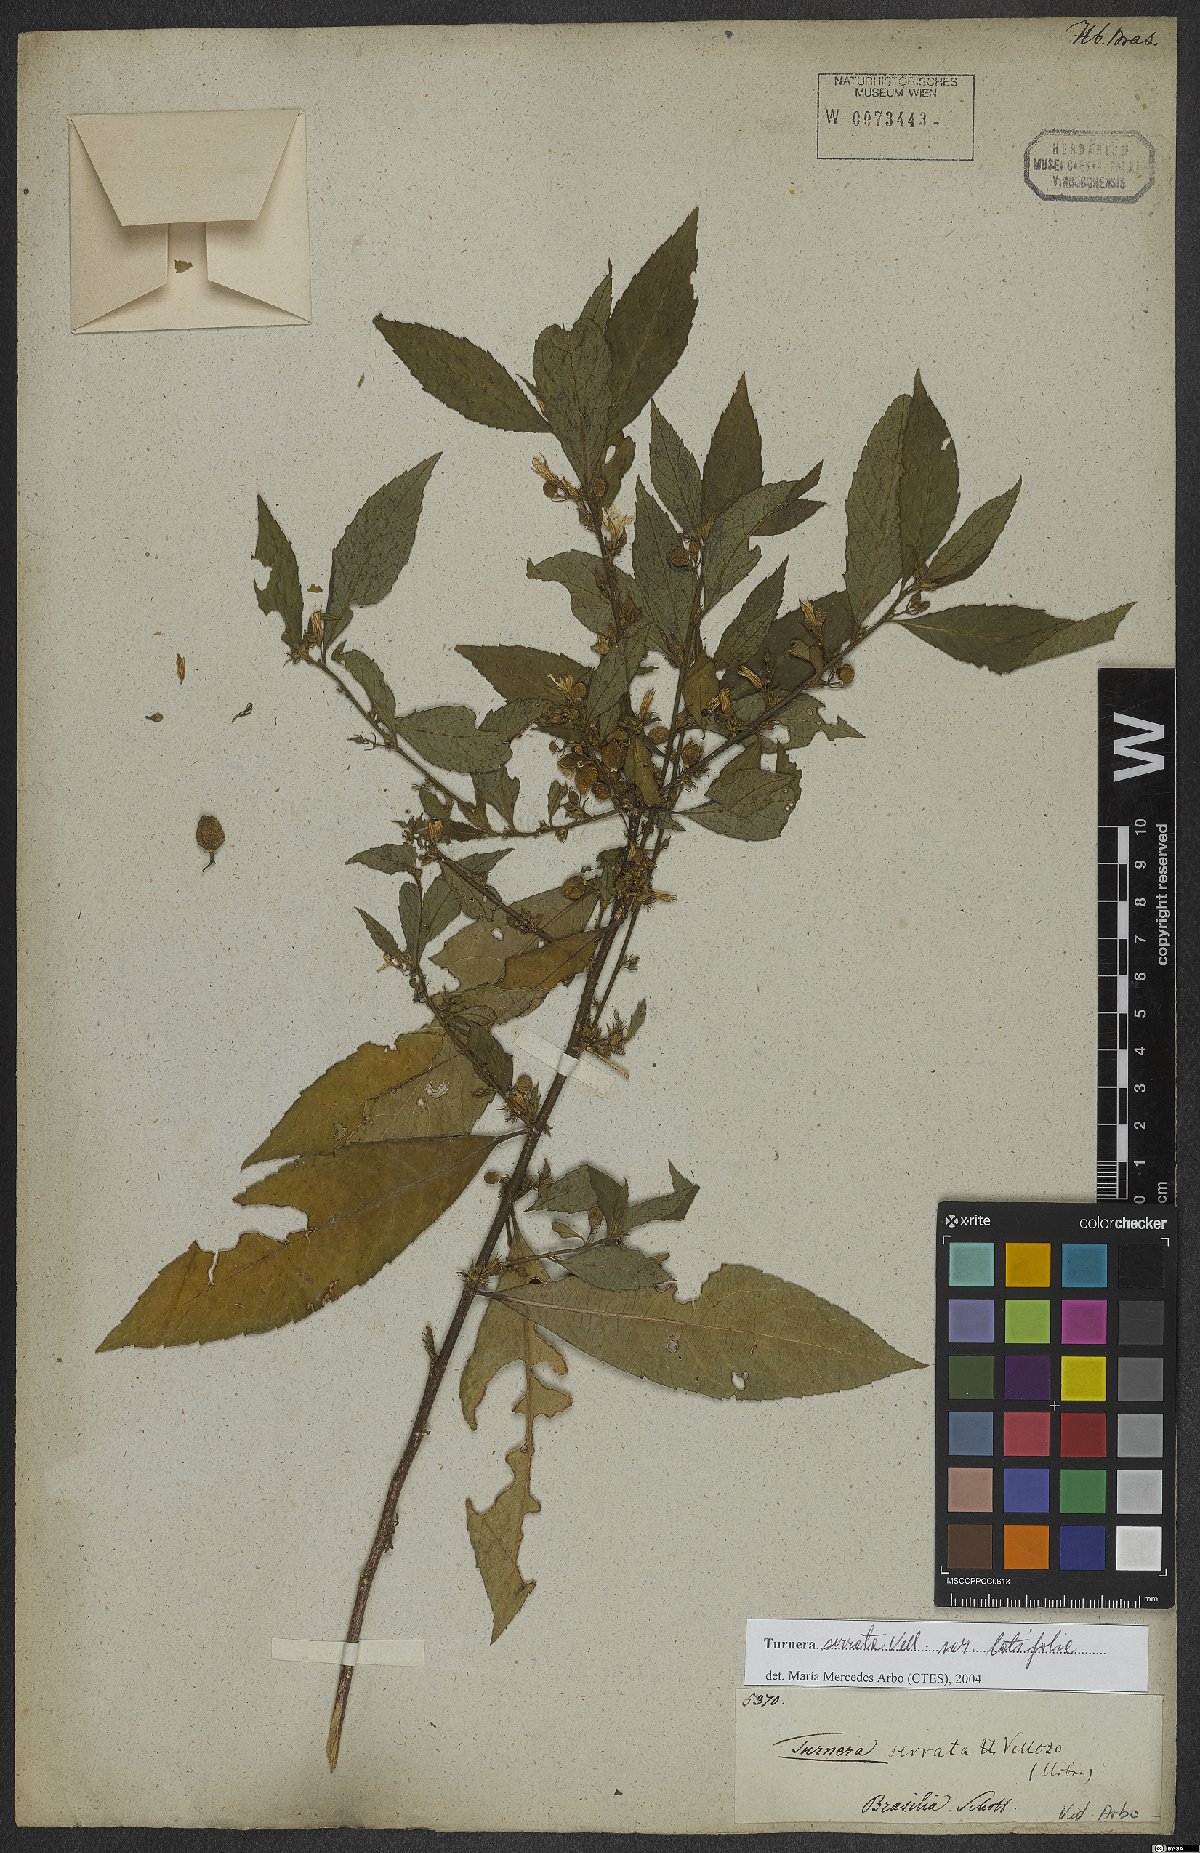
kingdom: Plantae
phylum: Tracheophyta
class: Magnoliopsida
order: Malpighiales
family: Turneraceae
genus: Turnera
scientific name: Turnera serrata
